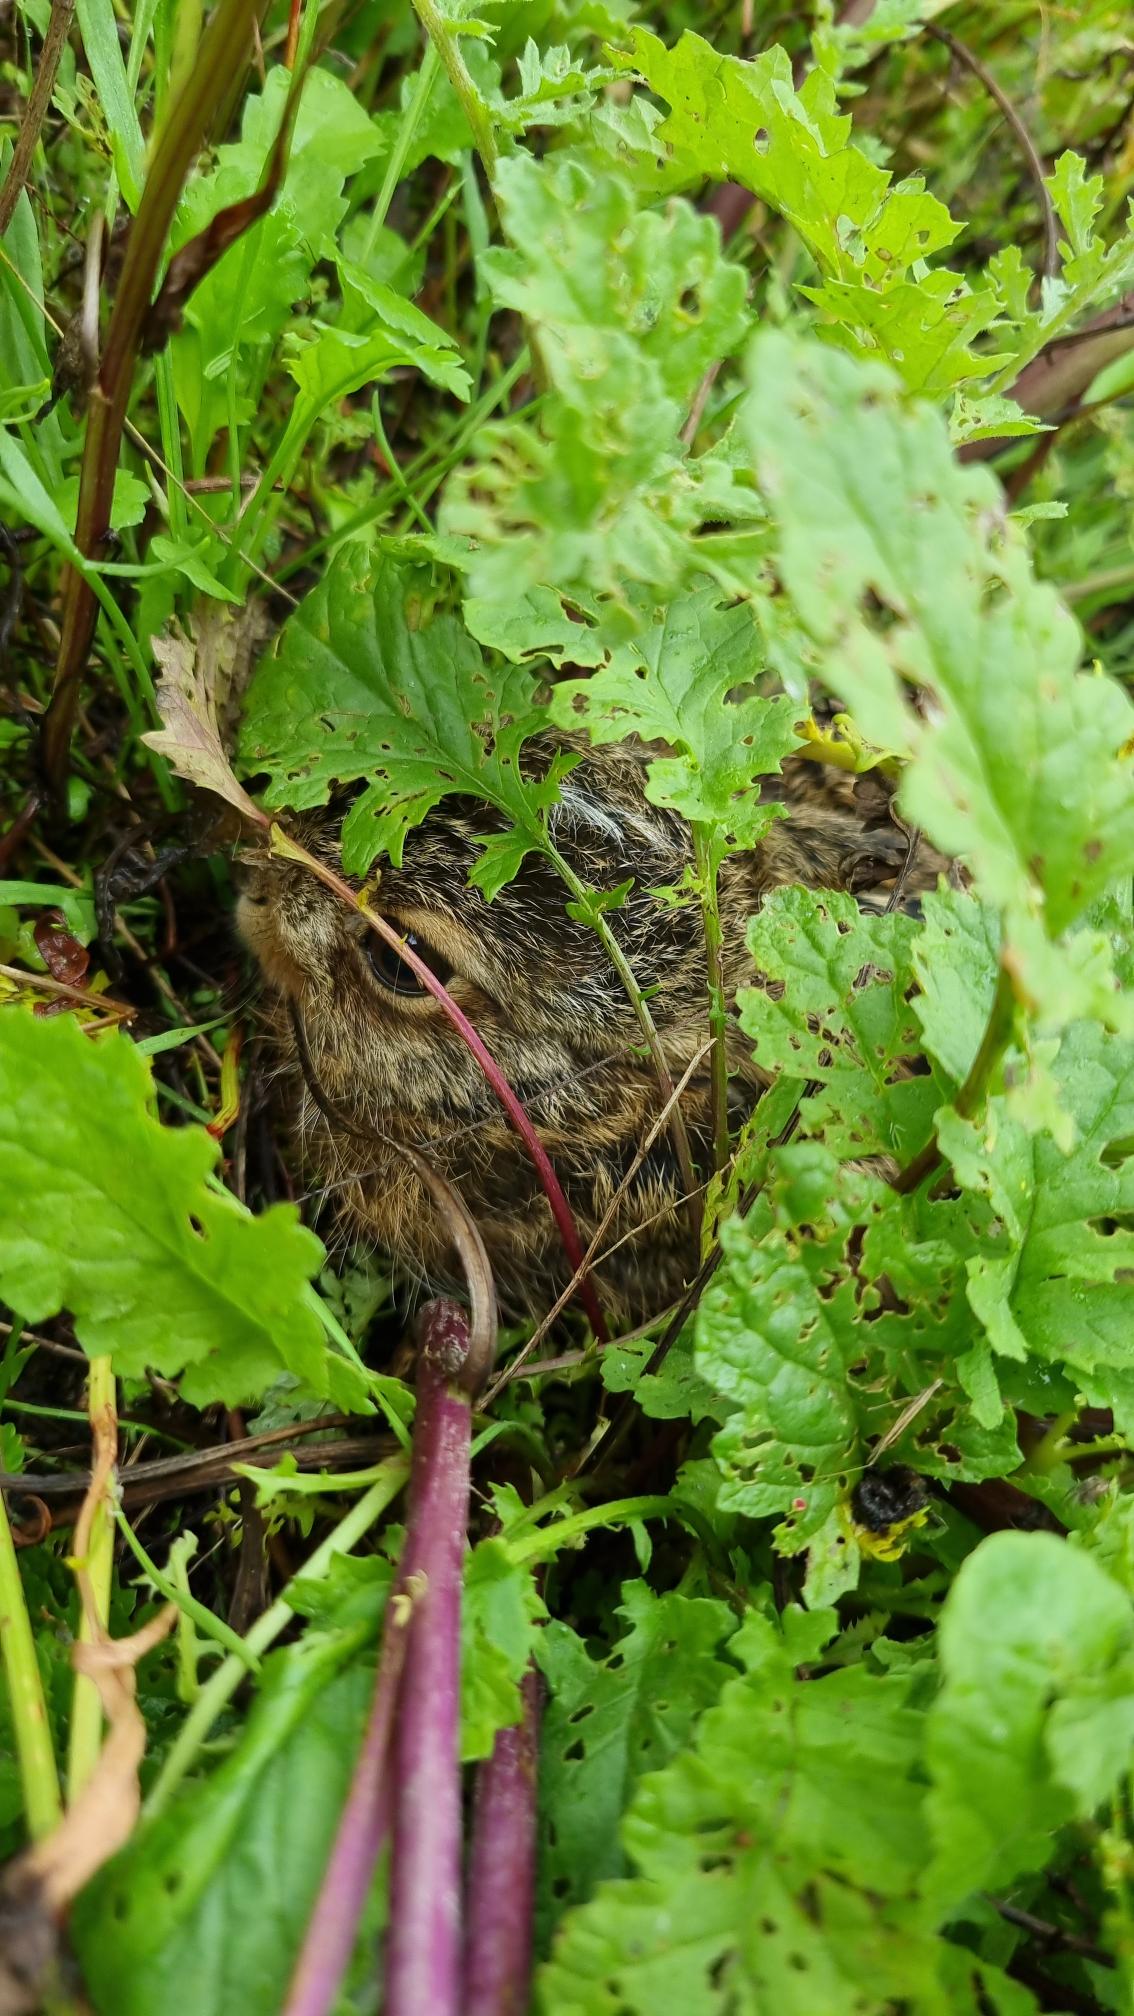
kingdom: Animalia
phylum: Chordata
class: Mammalia
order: Lagomorpha
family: Leporidae
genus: Lepus
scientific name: Lepus europaeus
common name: Hare
